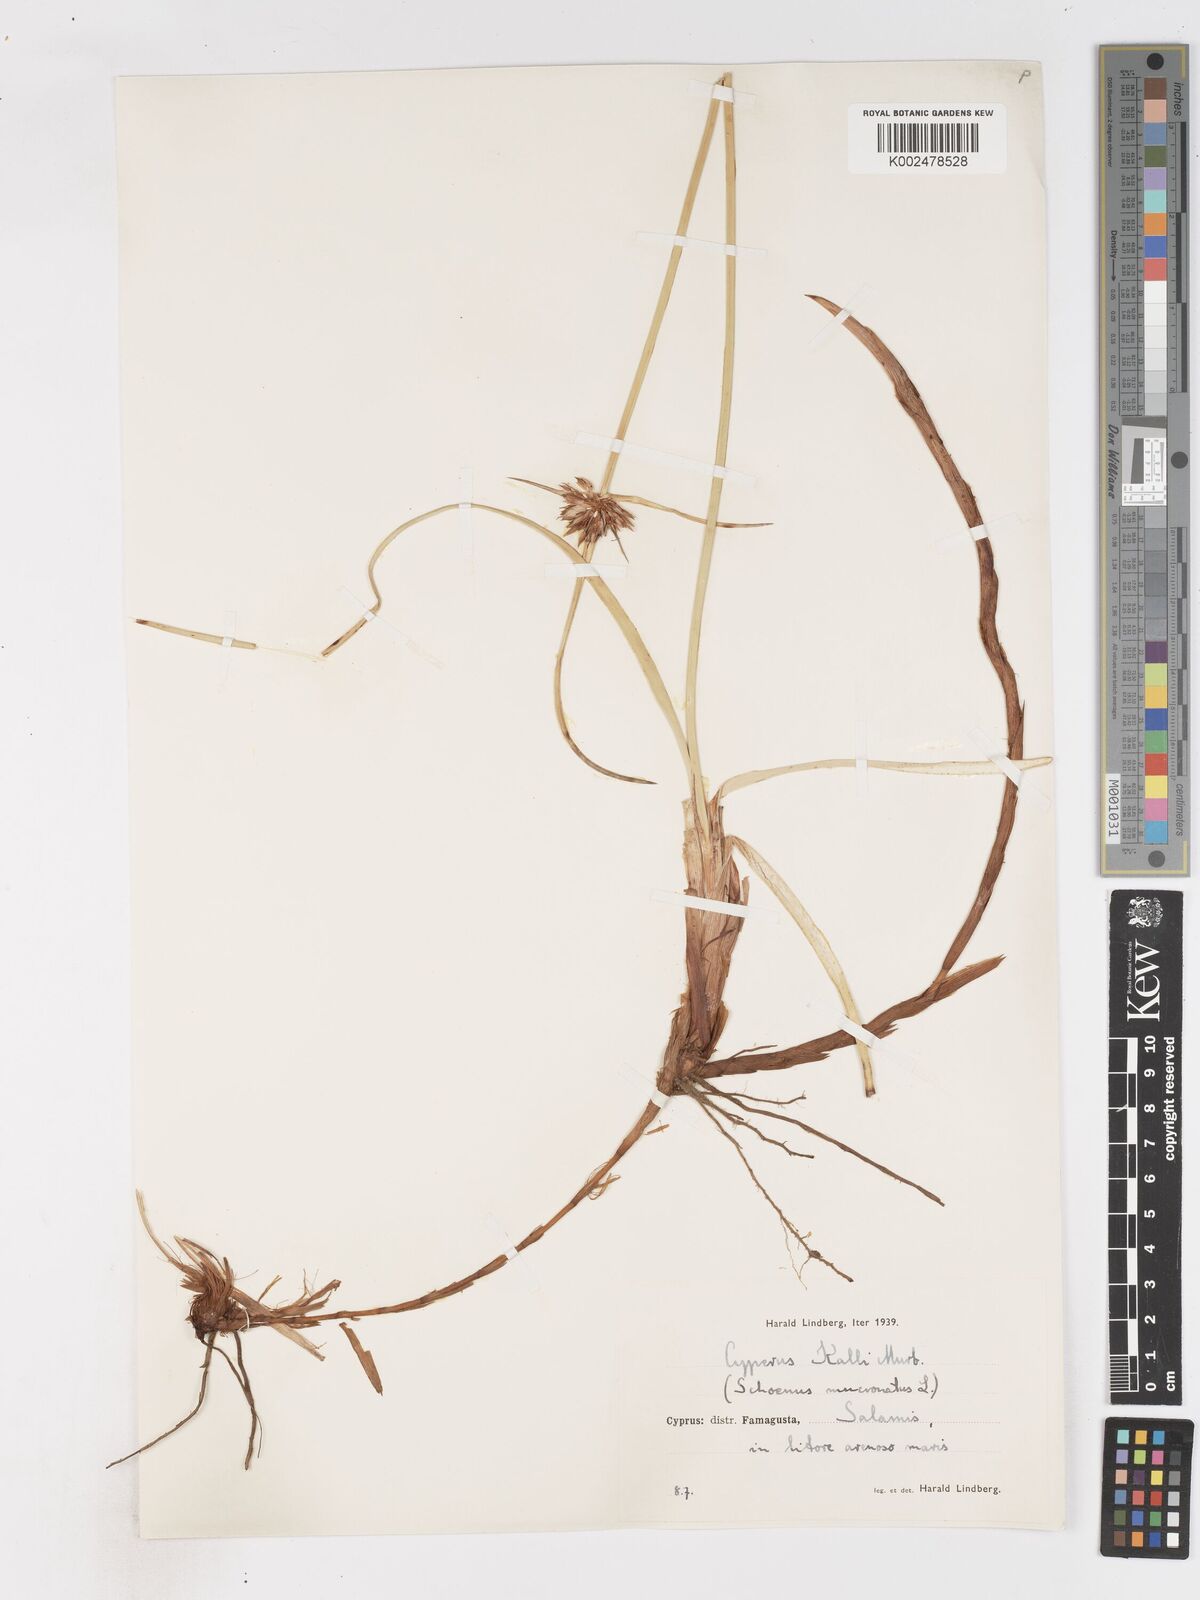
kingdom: Plantae
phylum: Tracheophyta
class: Liliopsida
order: Poales
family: Cyperaceae
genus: Cyperus
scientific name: Cyperus capitatus
